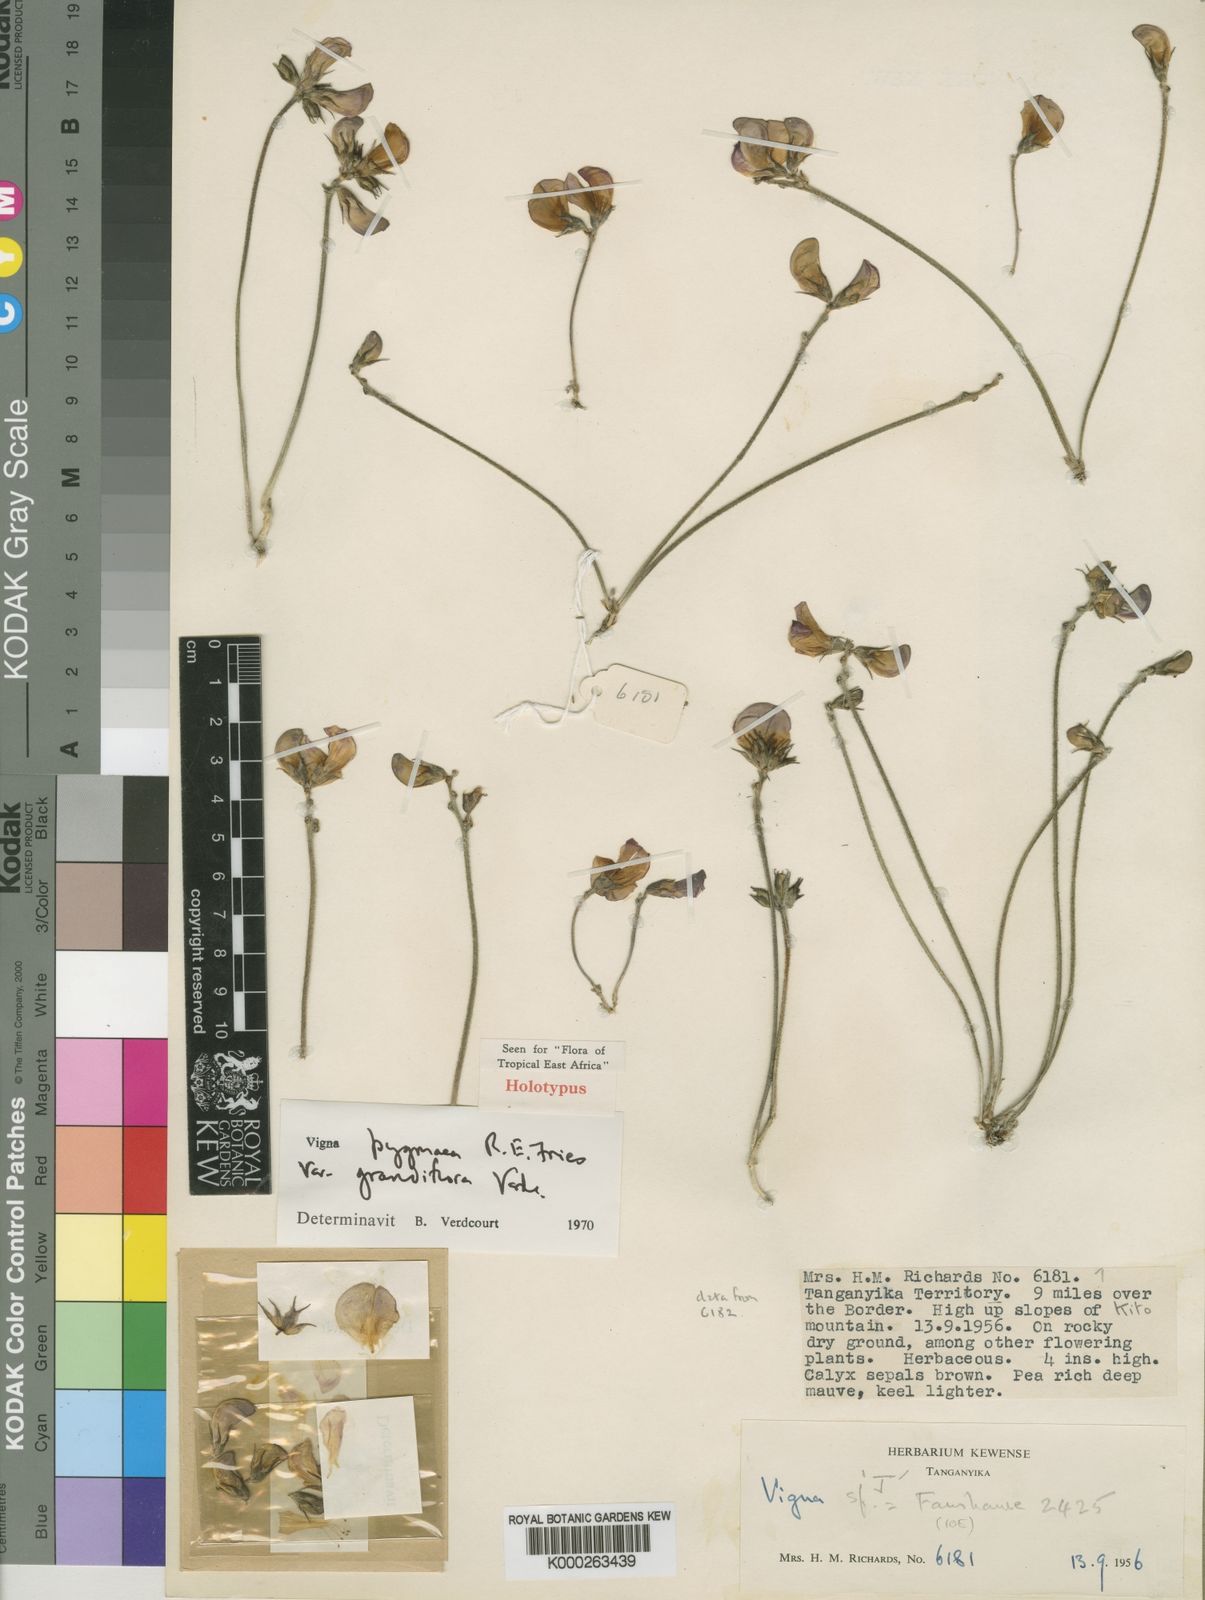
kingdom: Plantae
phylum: Tracheophyta
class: Magnoliopsida
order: Fabales
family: Fabaceae
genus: Vigna
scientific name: Vigna pygmaea
